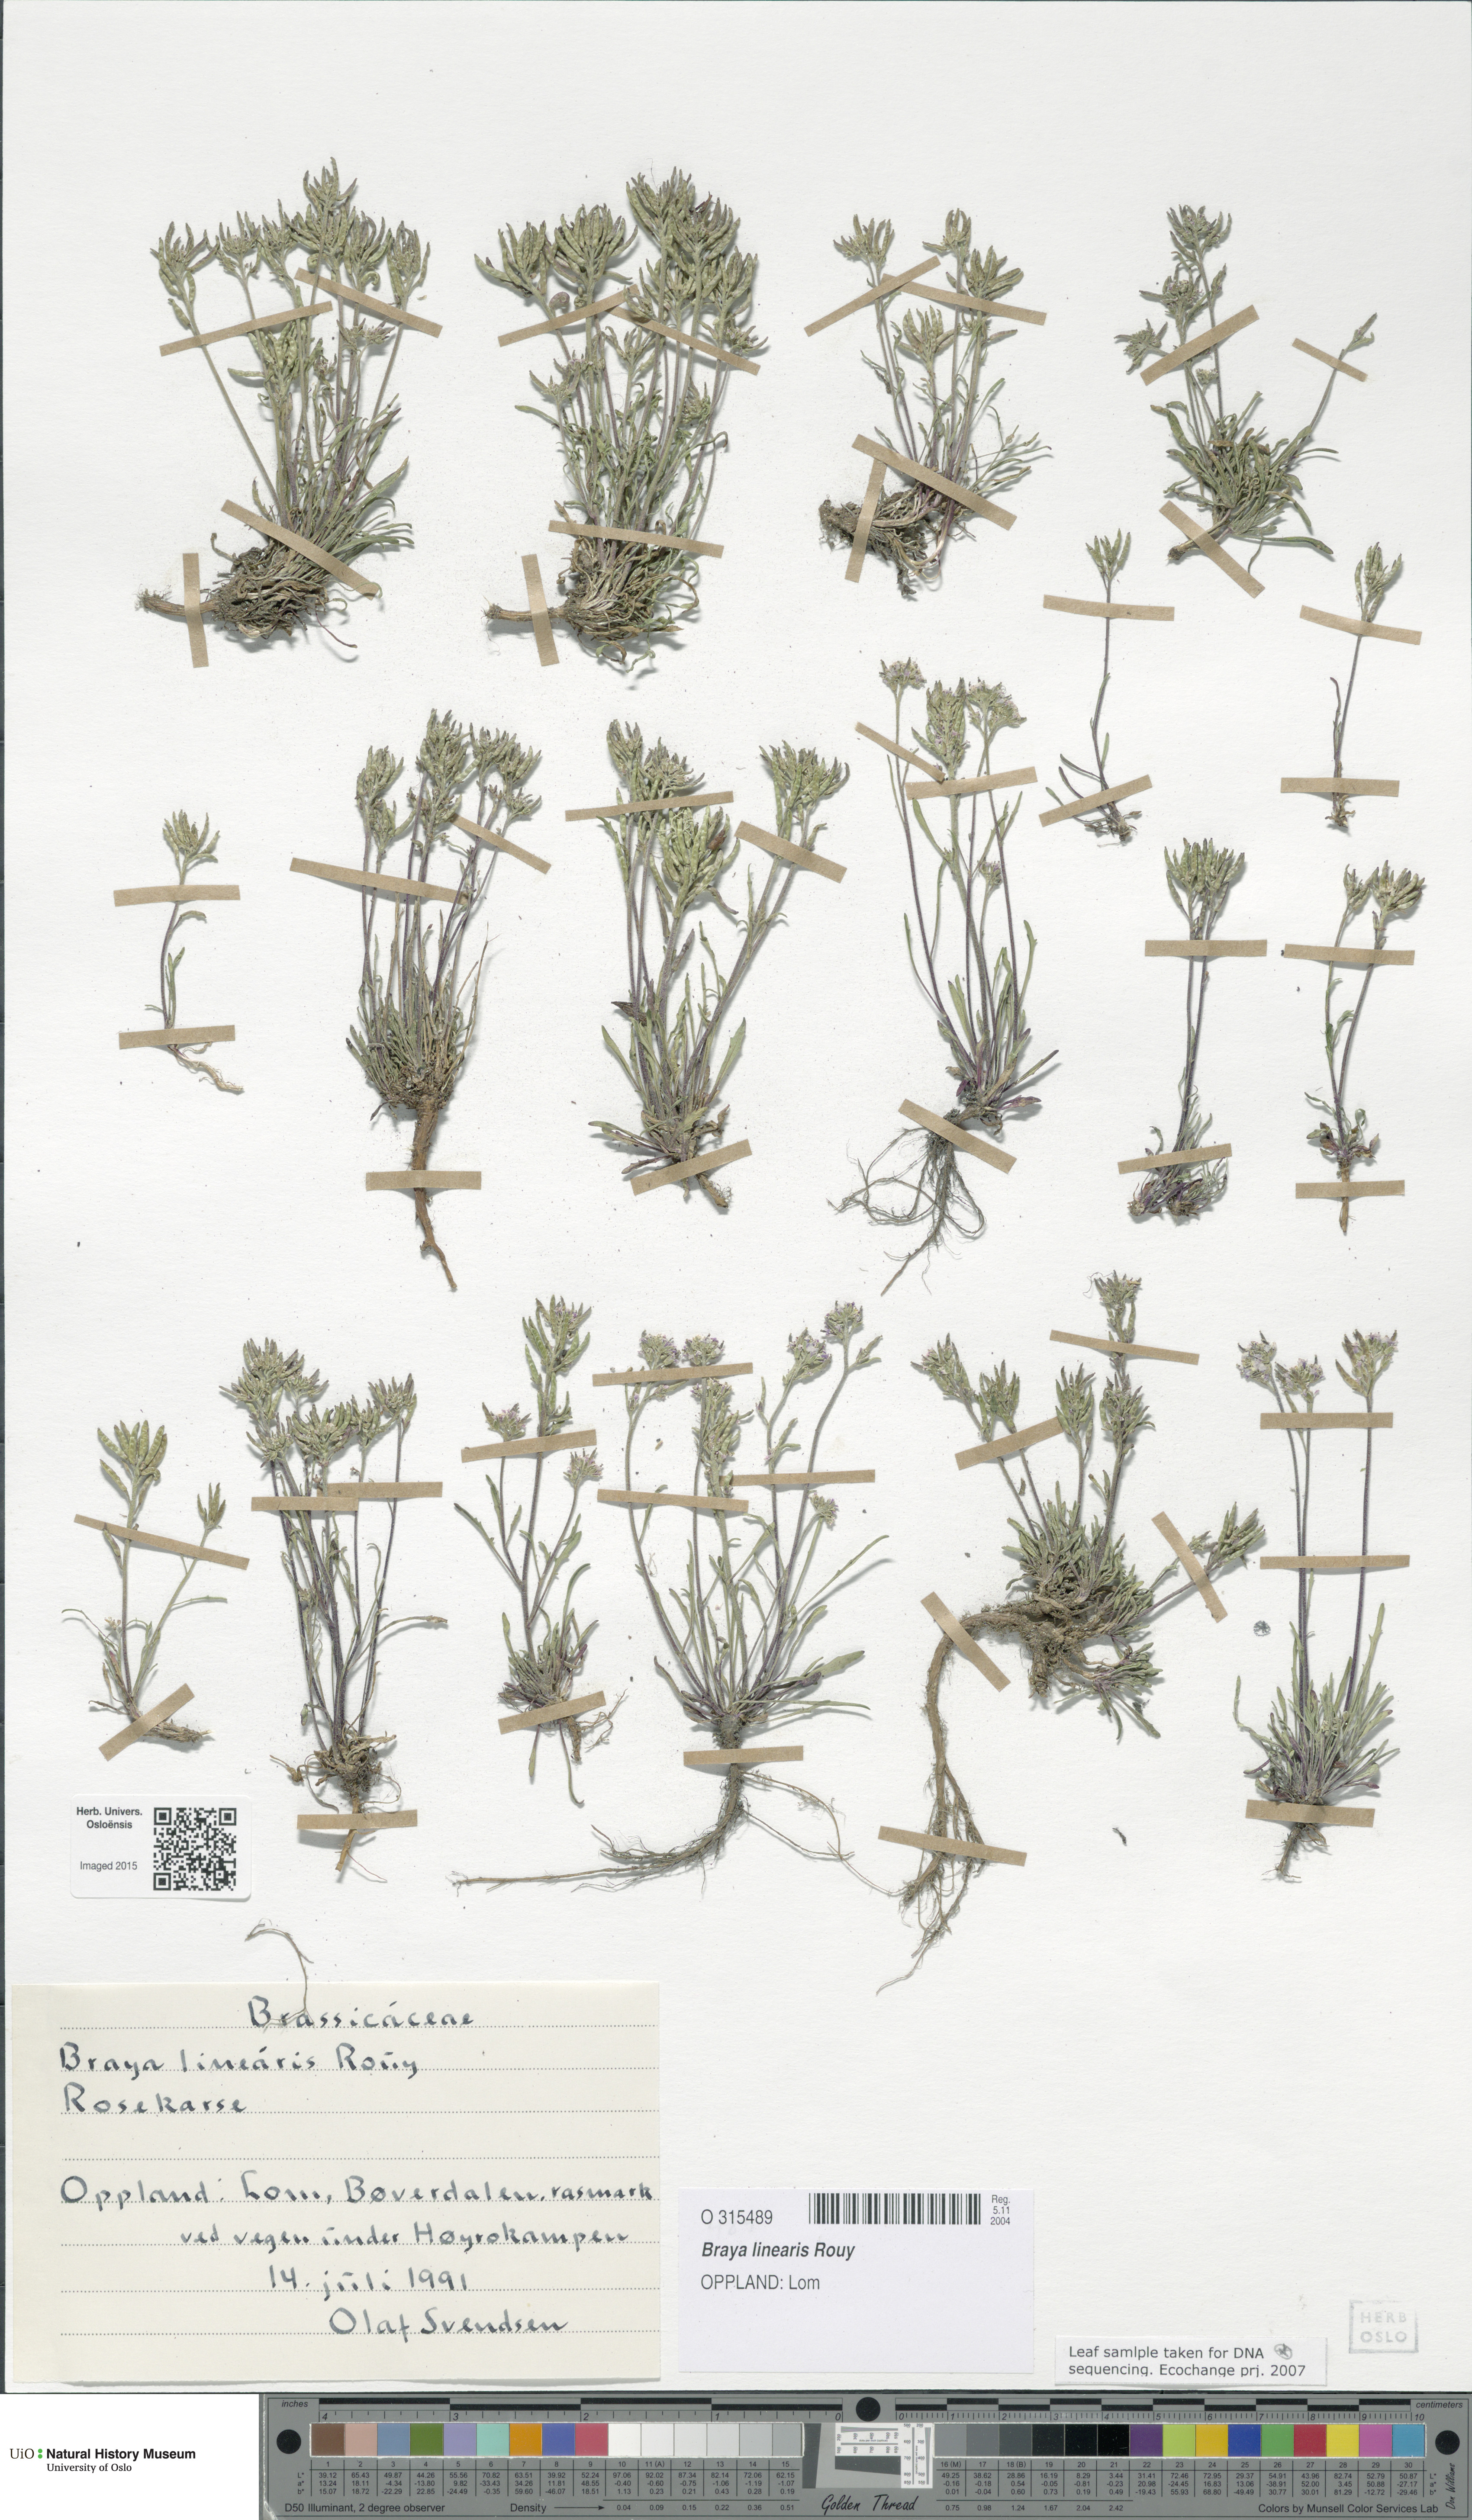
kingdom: Plantae
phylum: Tracheophyta
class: Magnoliopsida
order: Brassicales
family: Brassicaceae
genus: Braya
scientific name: Braya linearis
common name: Narrow-fruit braya
